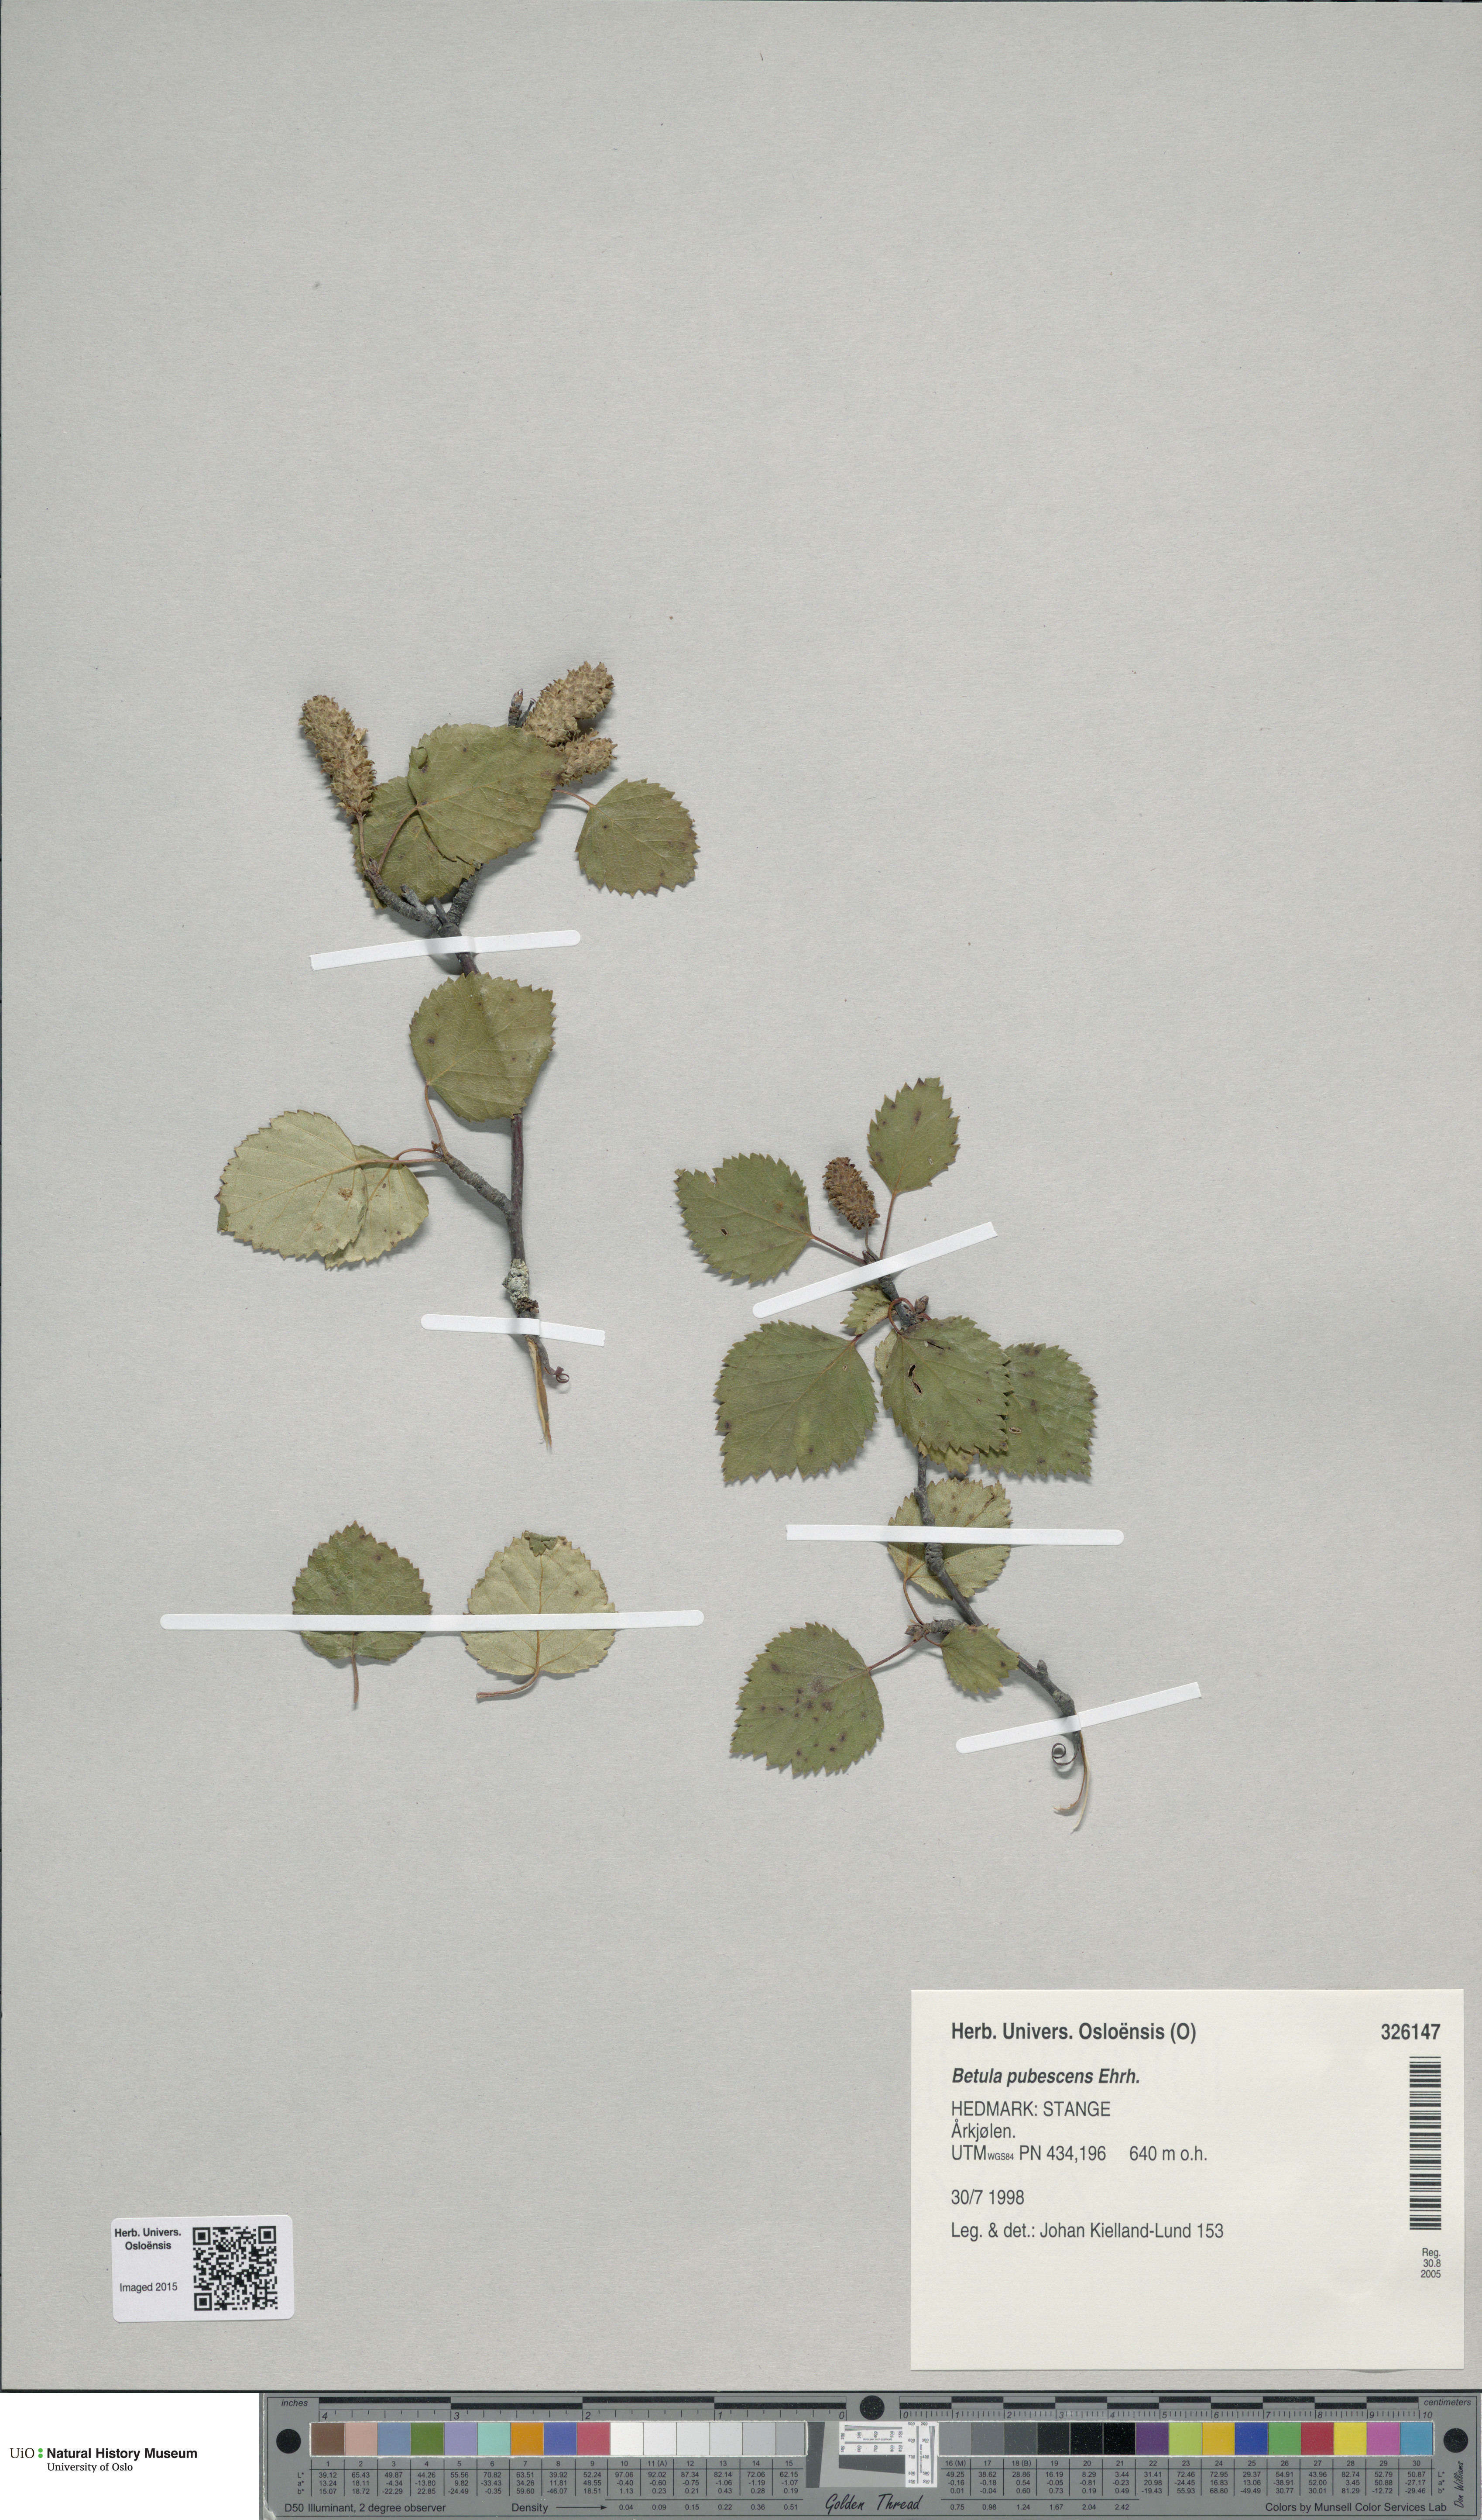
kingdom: Plantae
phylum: Tracheophyta
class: Magnoliopsida
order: Fagales
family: Betulaceae
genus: Betula
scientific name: Betula pubescens
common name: Downy birch
